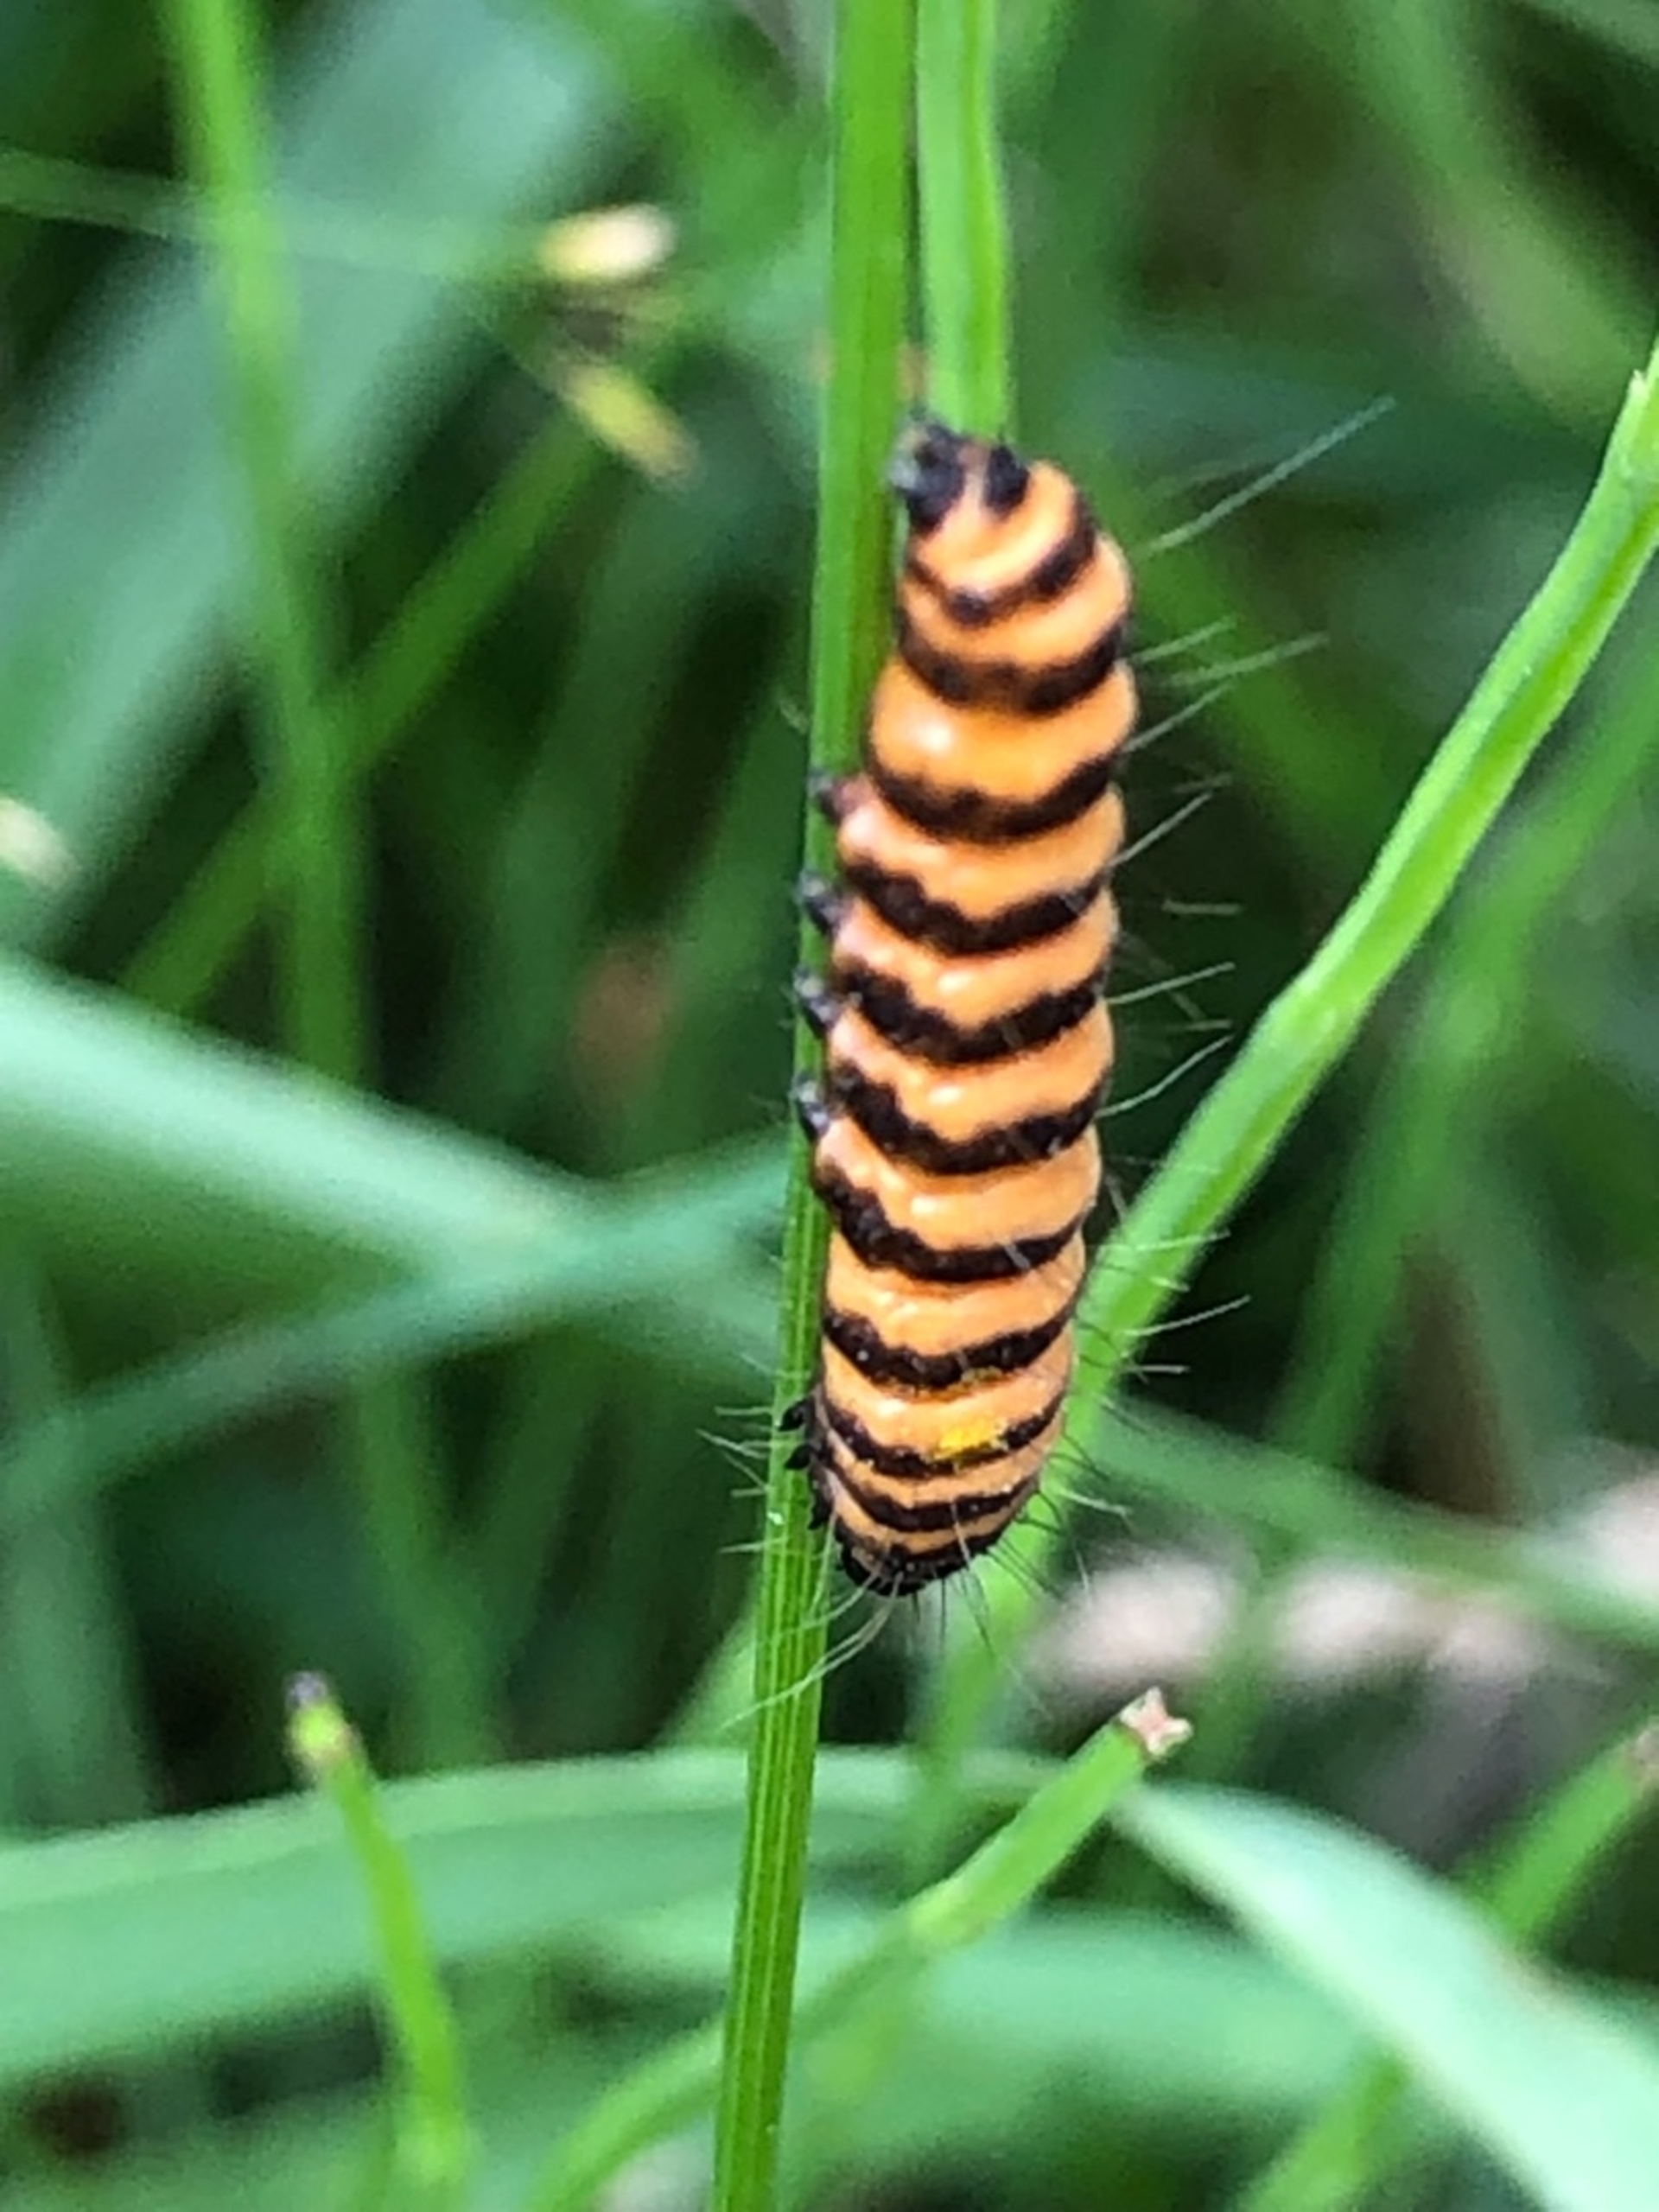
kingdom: Animalia
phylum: Arthropoda
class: Insecta
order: Lepidoptera
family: Erebidae
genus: Tyria
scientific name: Tyria jacobaeae
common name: Blodplet
